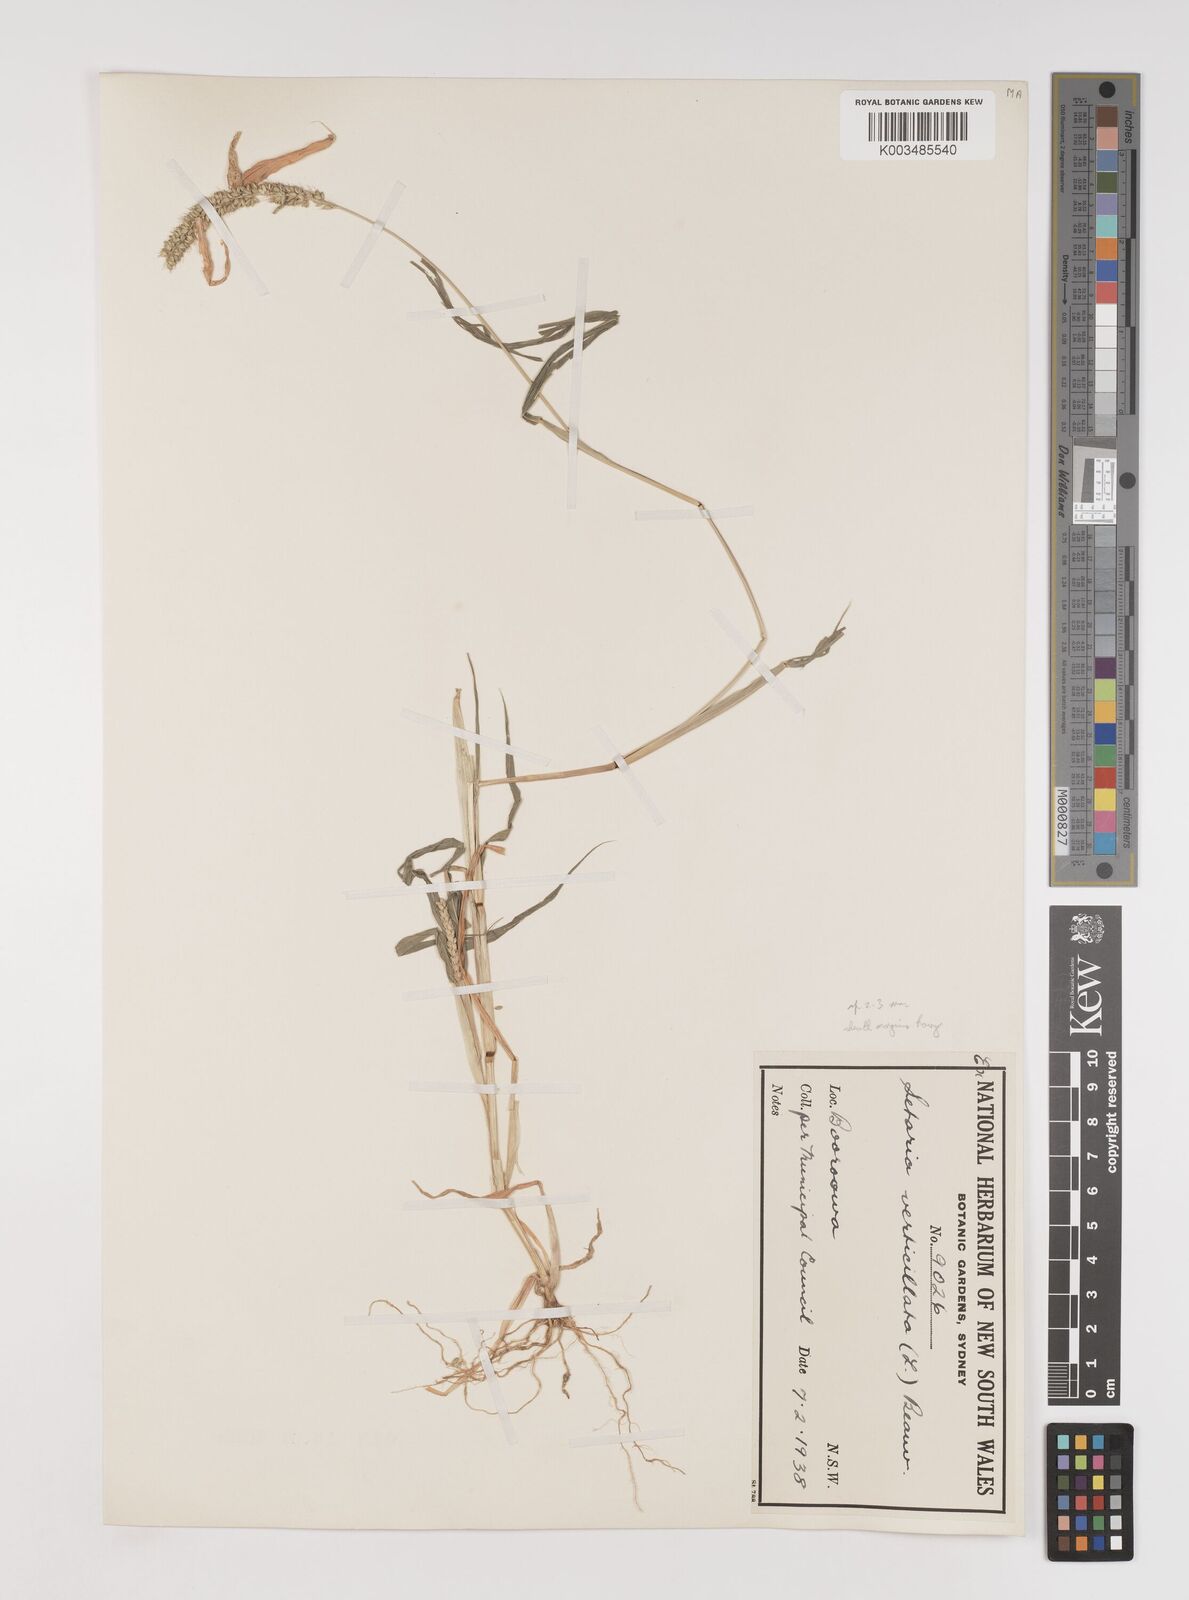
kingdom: Plantae
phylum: Tracheophyta
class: Liliopsida
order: Poales
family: Poaceae
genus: Setaria
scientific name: Setaria verticillata
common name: Hooked bristlegrass
